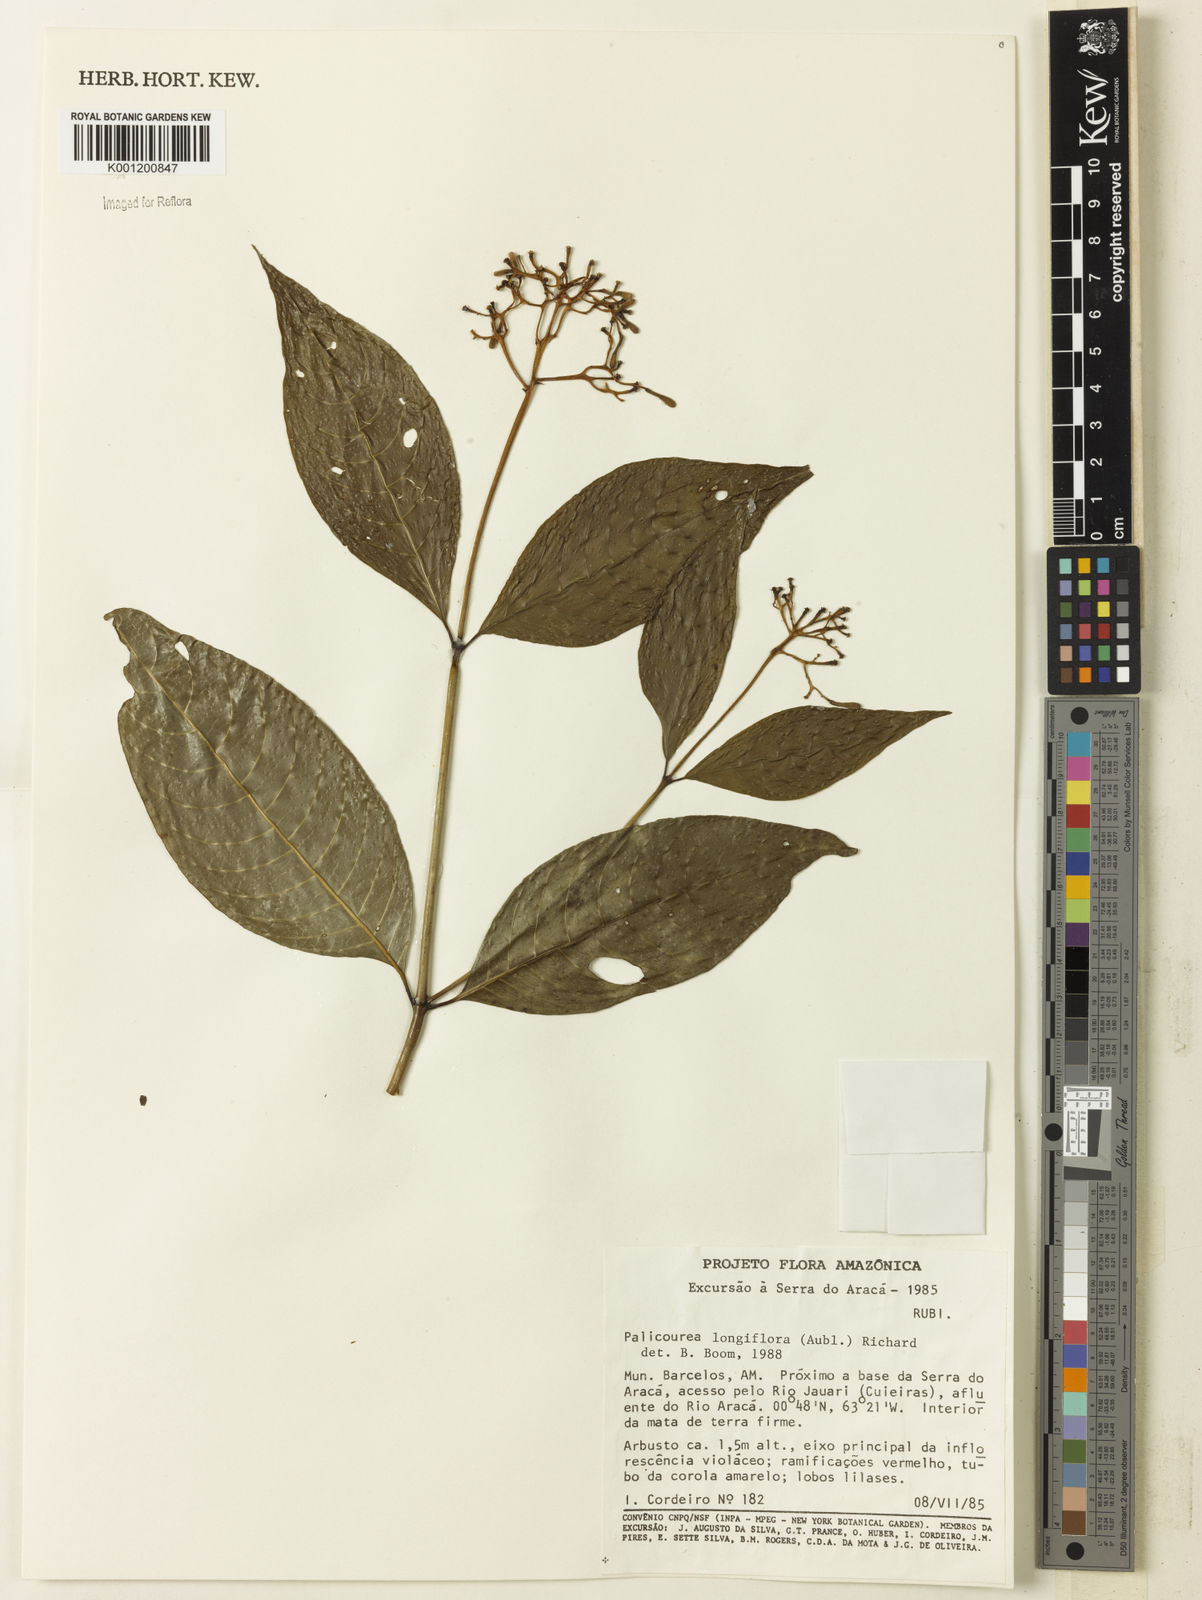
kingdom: Plantae
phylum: Tracheophyta
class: Magnoliopsida
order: Gentianales
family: Rubiaceae
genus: Palicourea
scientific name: Palicourea longiflora
